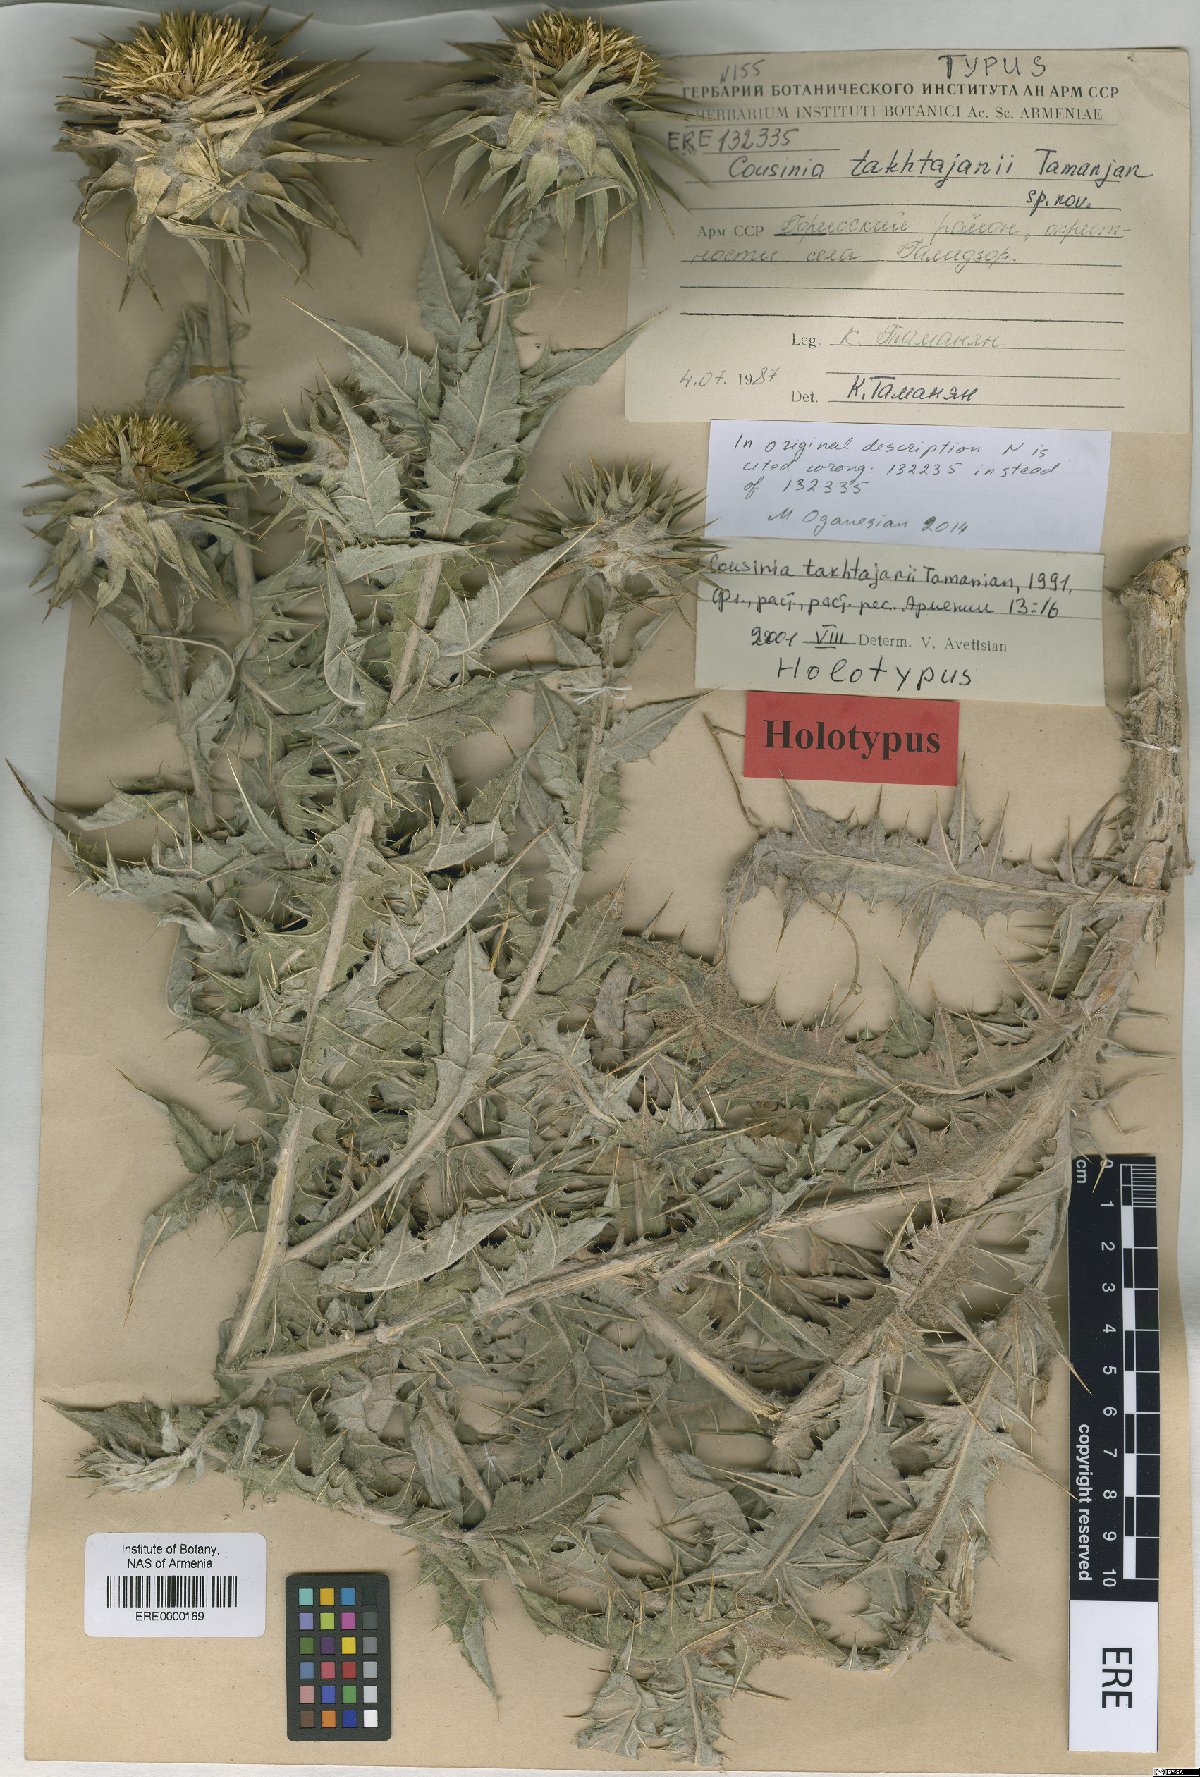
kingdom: Plantae
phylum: Tracheophyta
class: Magnoliopsida
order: Asterales
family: Asteraceae
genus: Cousinia
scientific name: Cousinia macrocephala
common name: Macrocephalous cousinia
